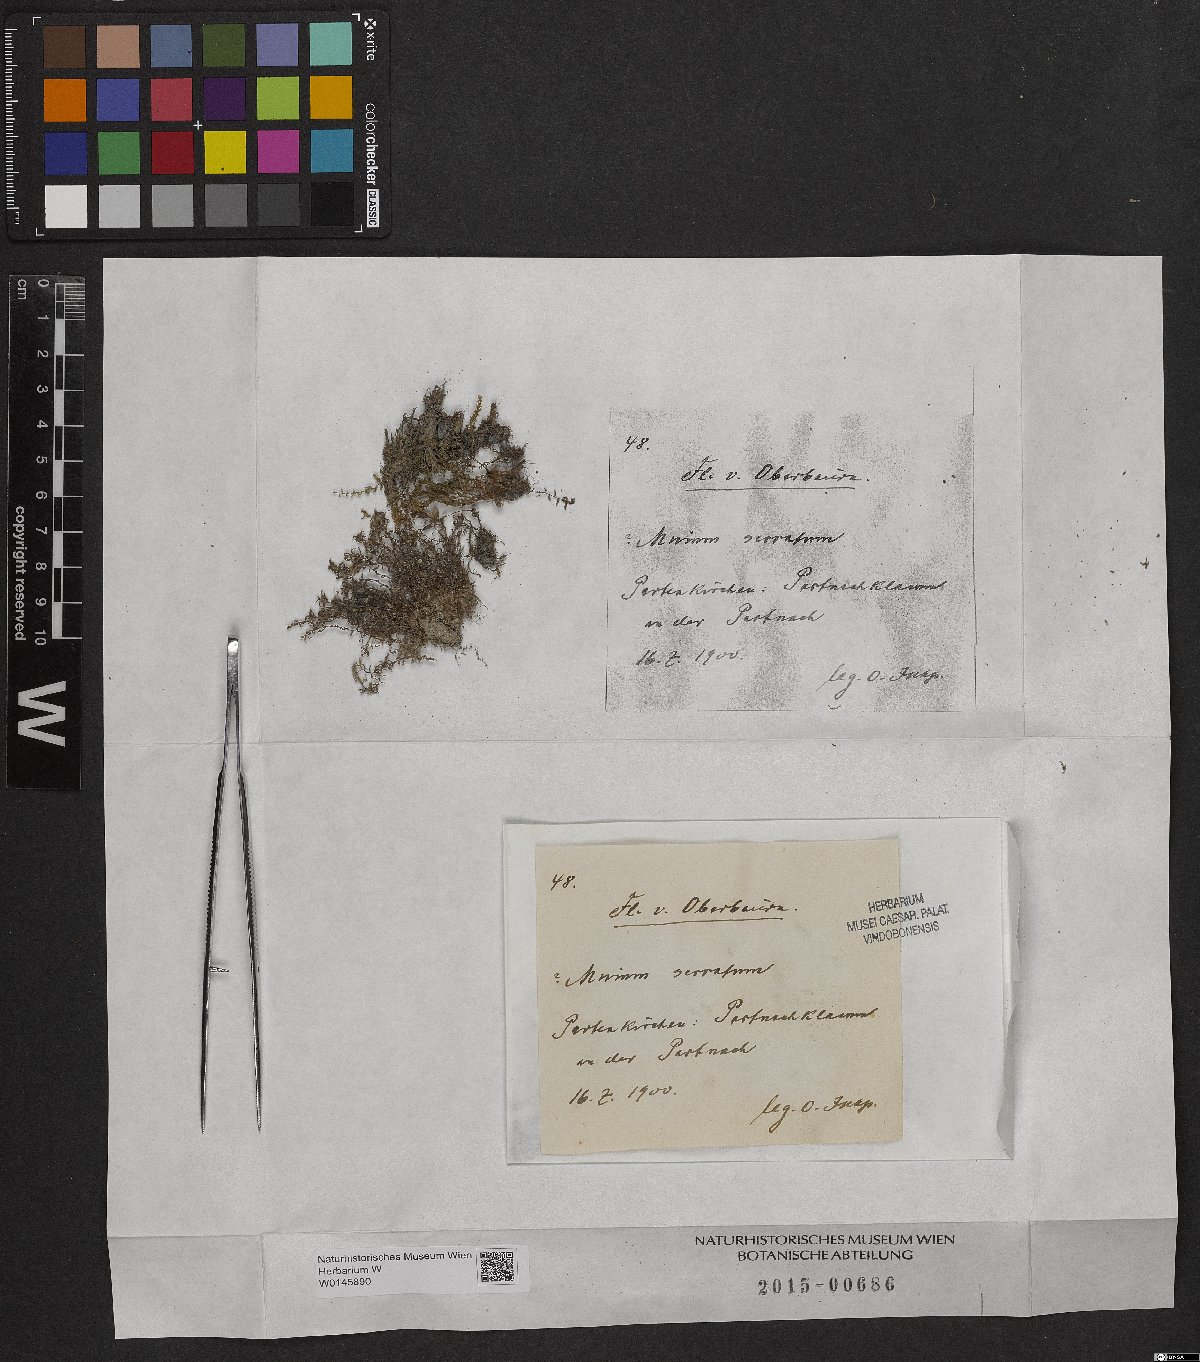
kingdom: Plantae
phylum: Bryophyta
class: Bryopsida
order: Bryales
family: Mniaceae
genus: Mnium
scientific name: Mnium marginatum
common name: Bordered leafy moss
